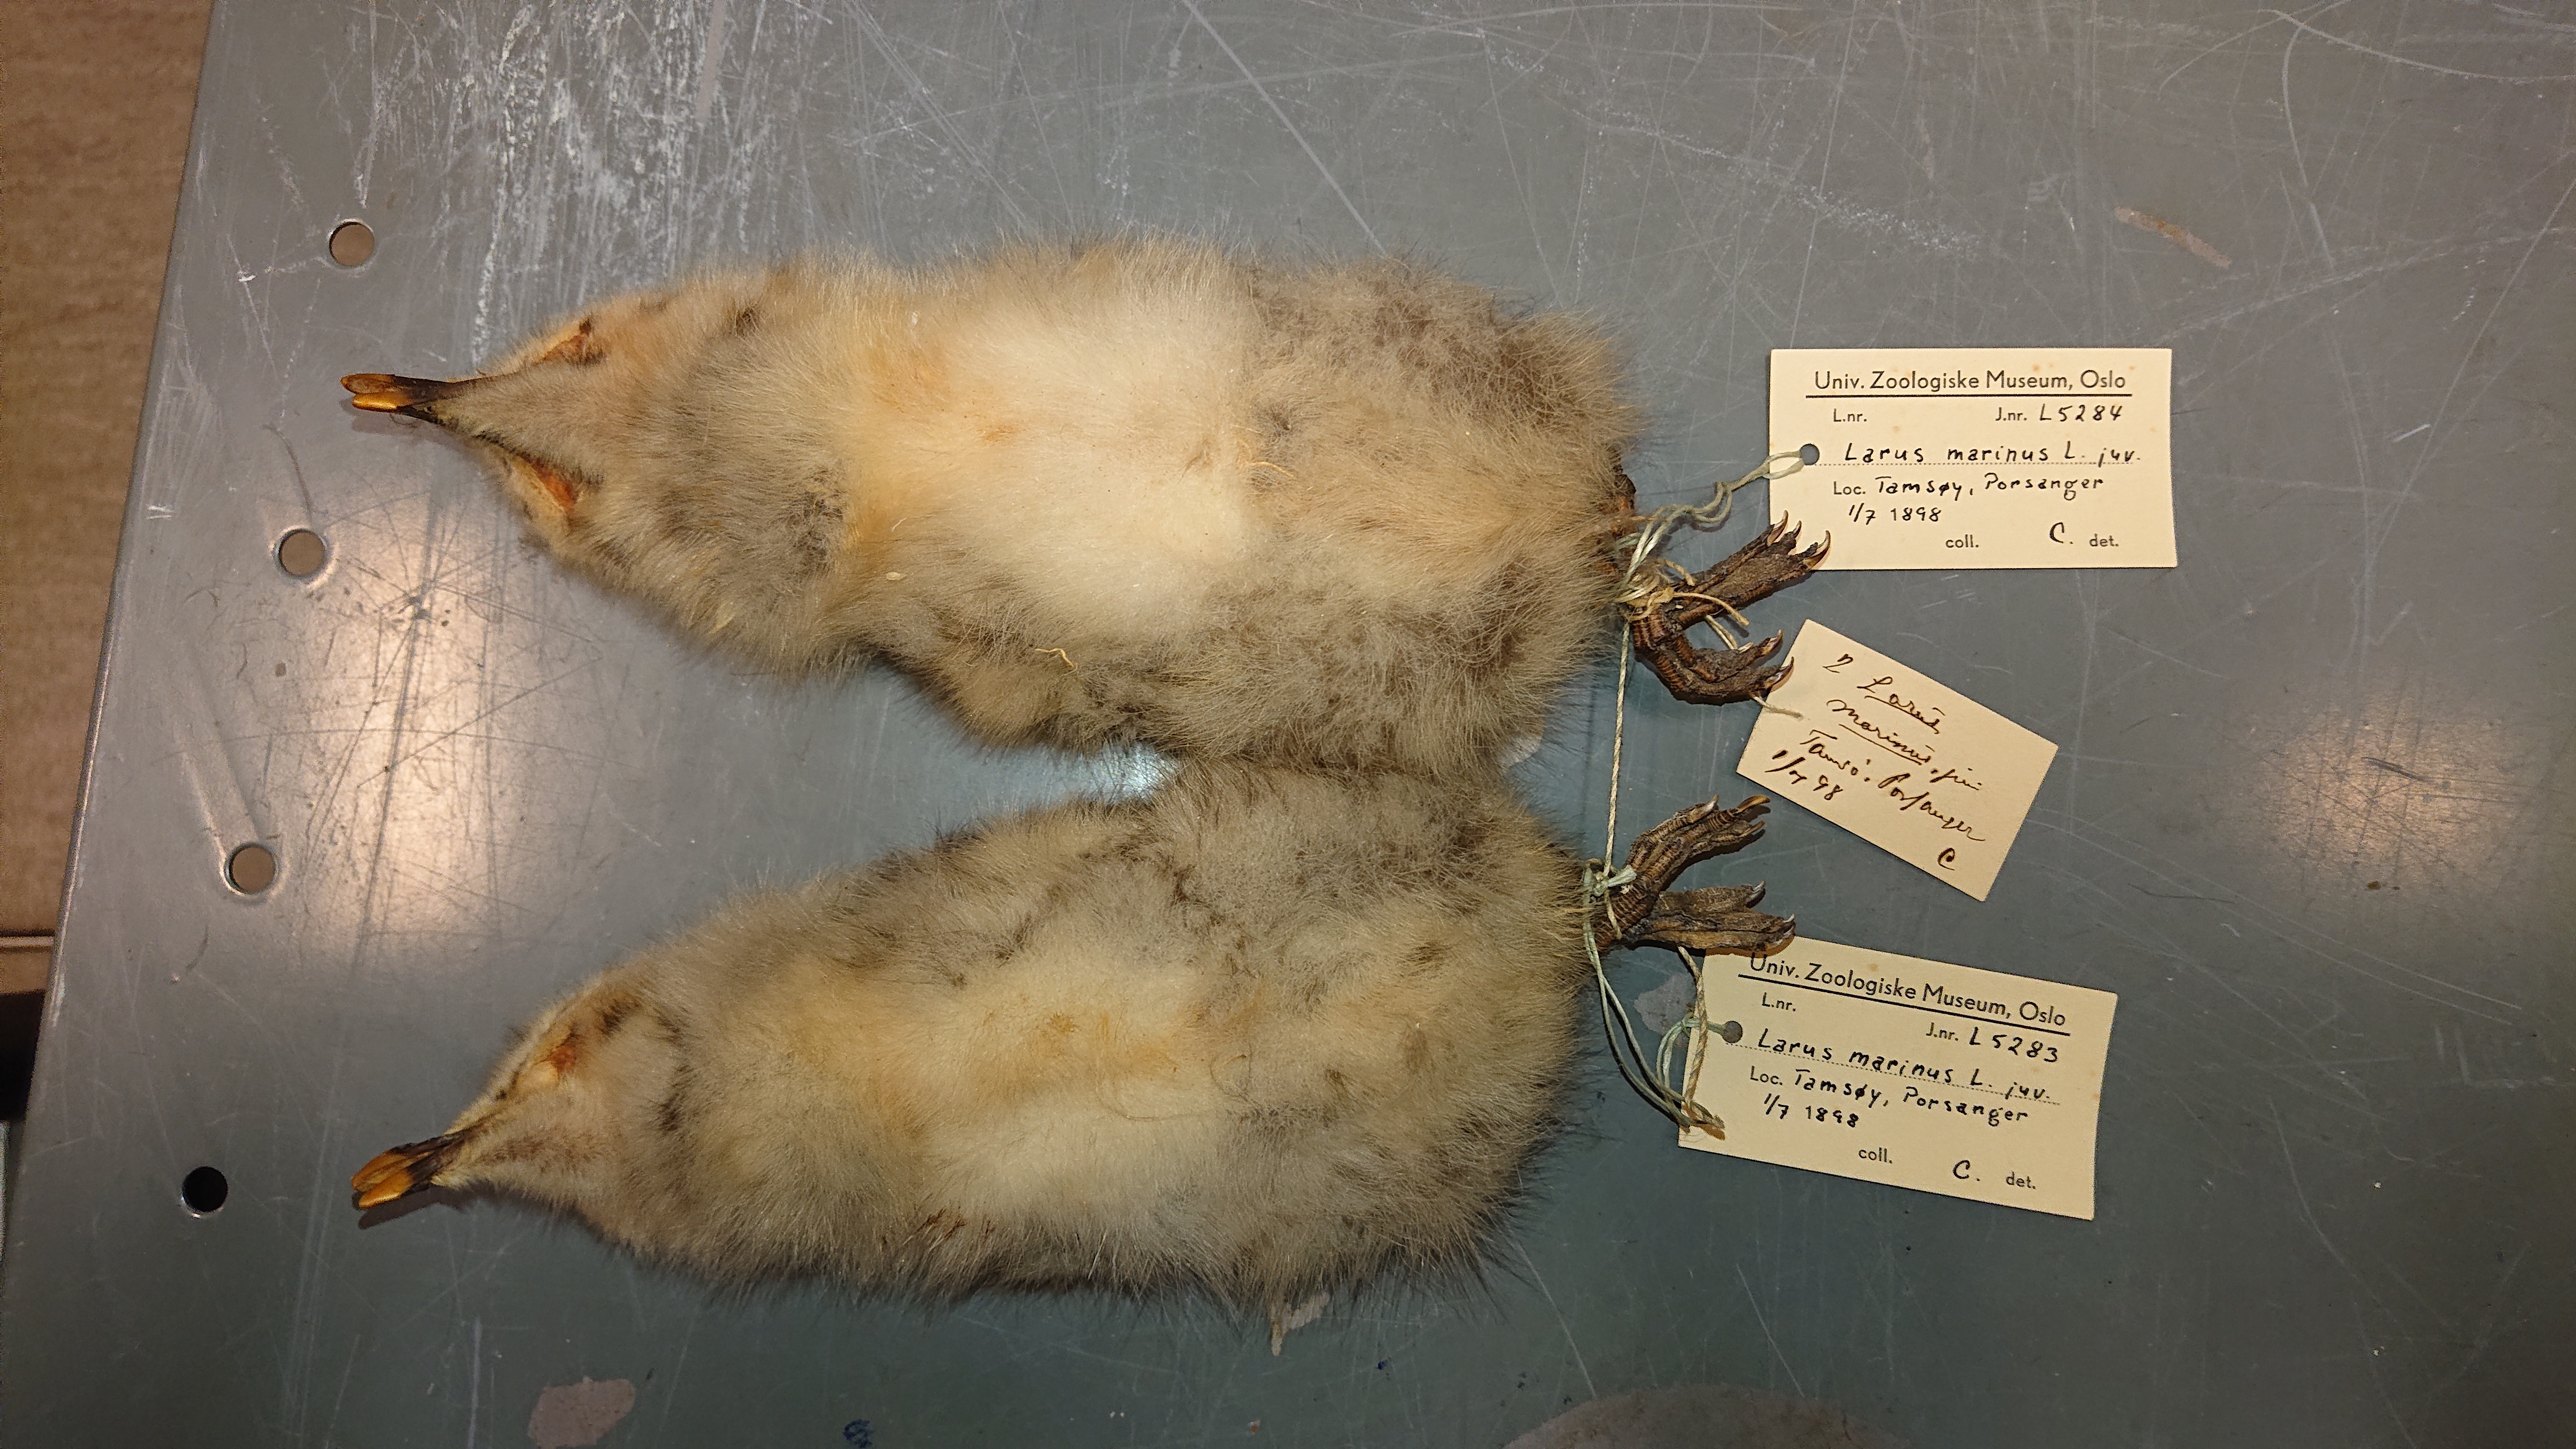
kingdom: Animalia
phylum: Chordata
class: Aves
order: Charadriiformes
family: Laridae
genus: Larus
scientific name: Larus marinus
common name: Great black-backed gull
